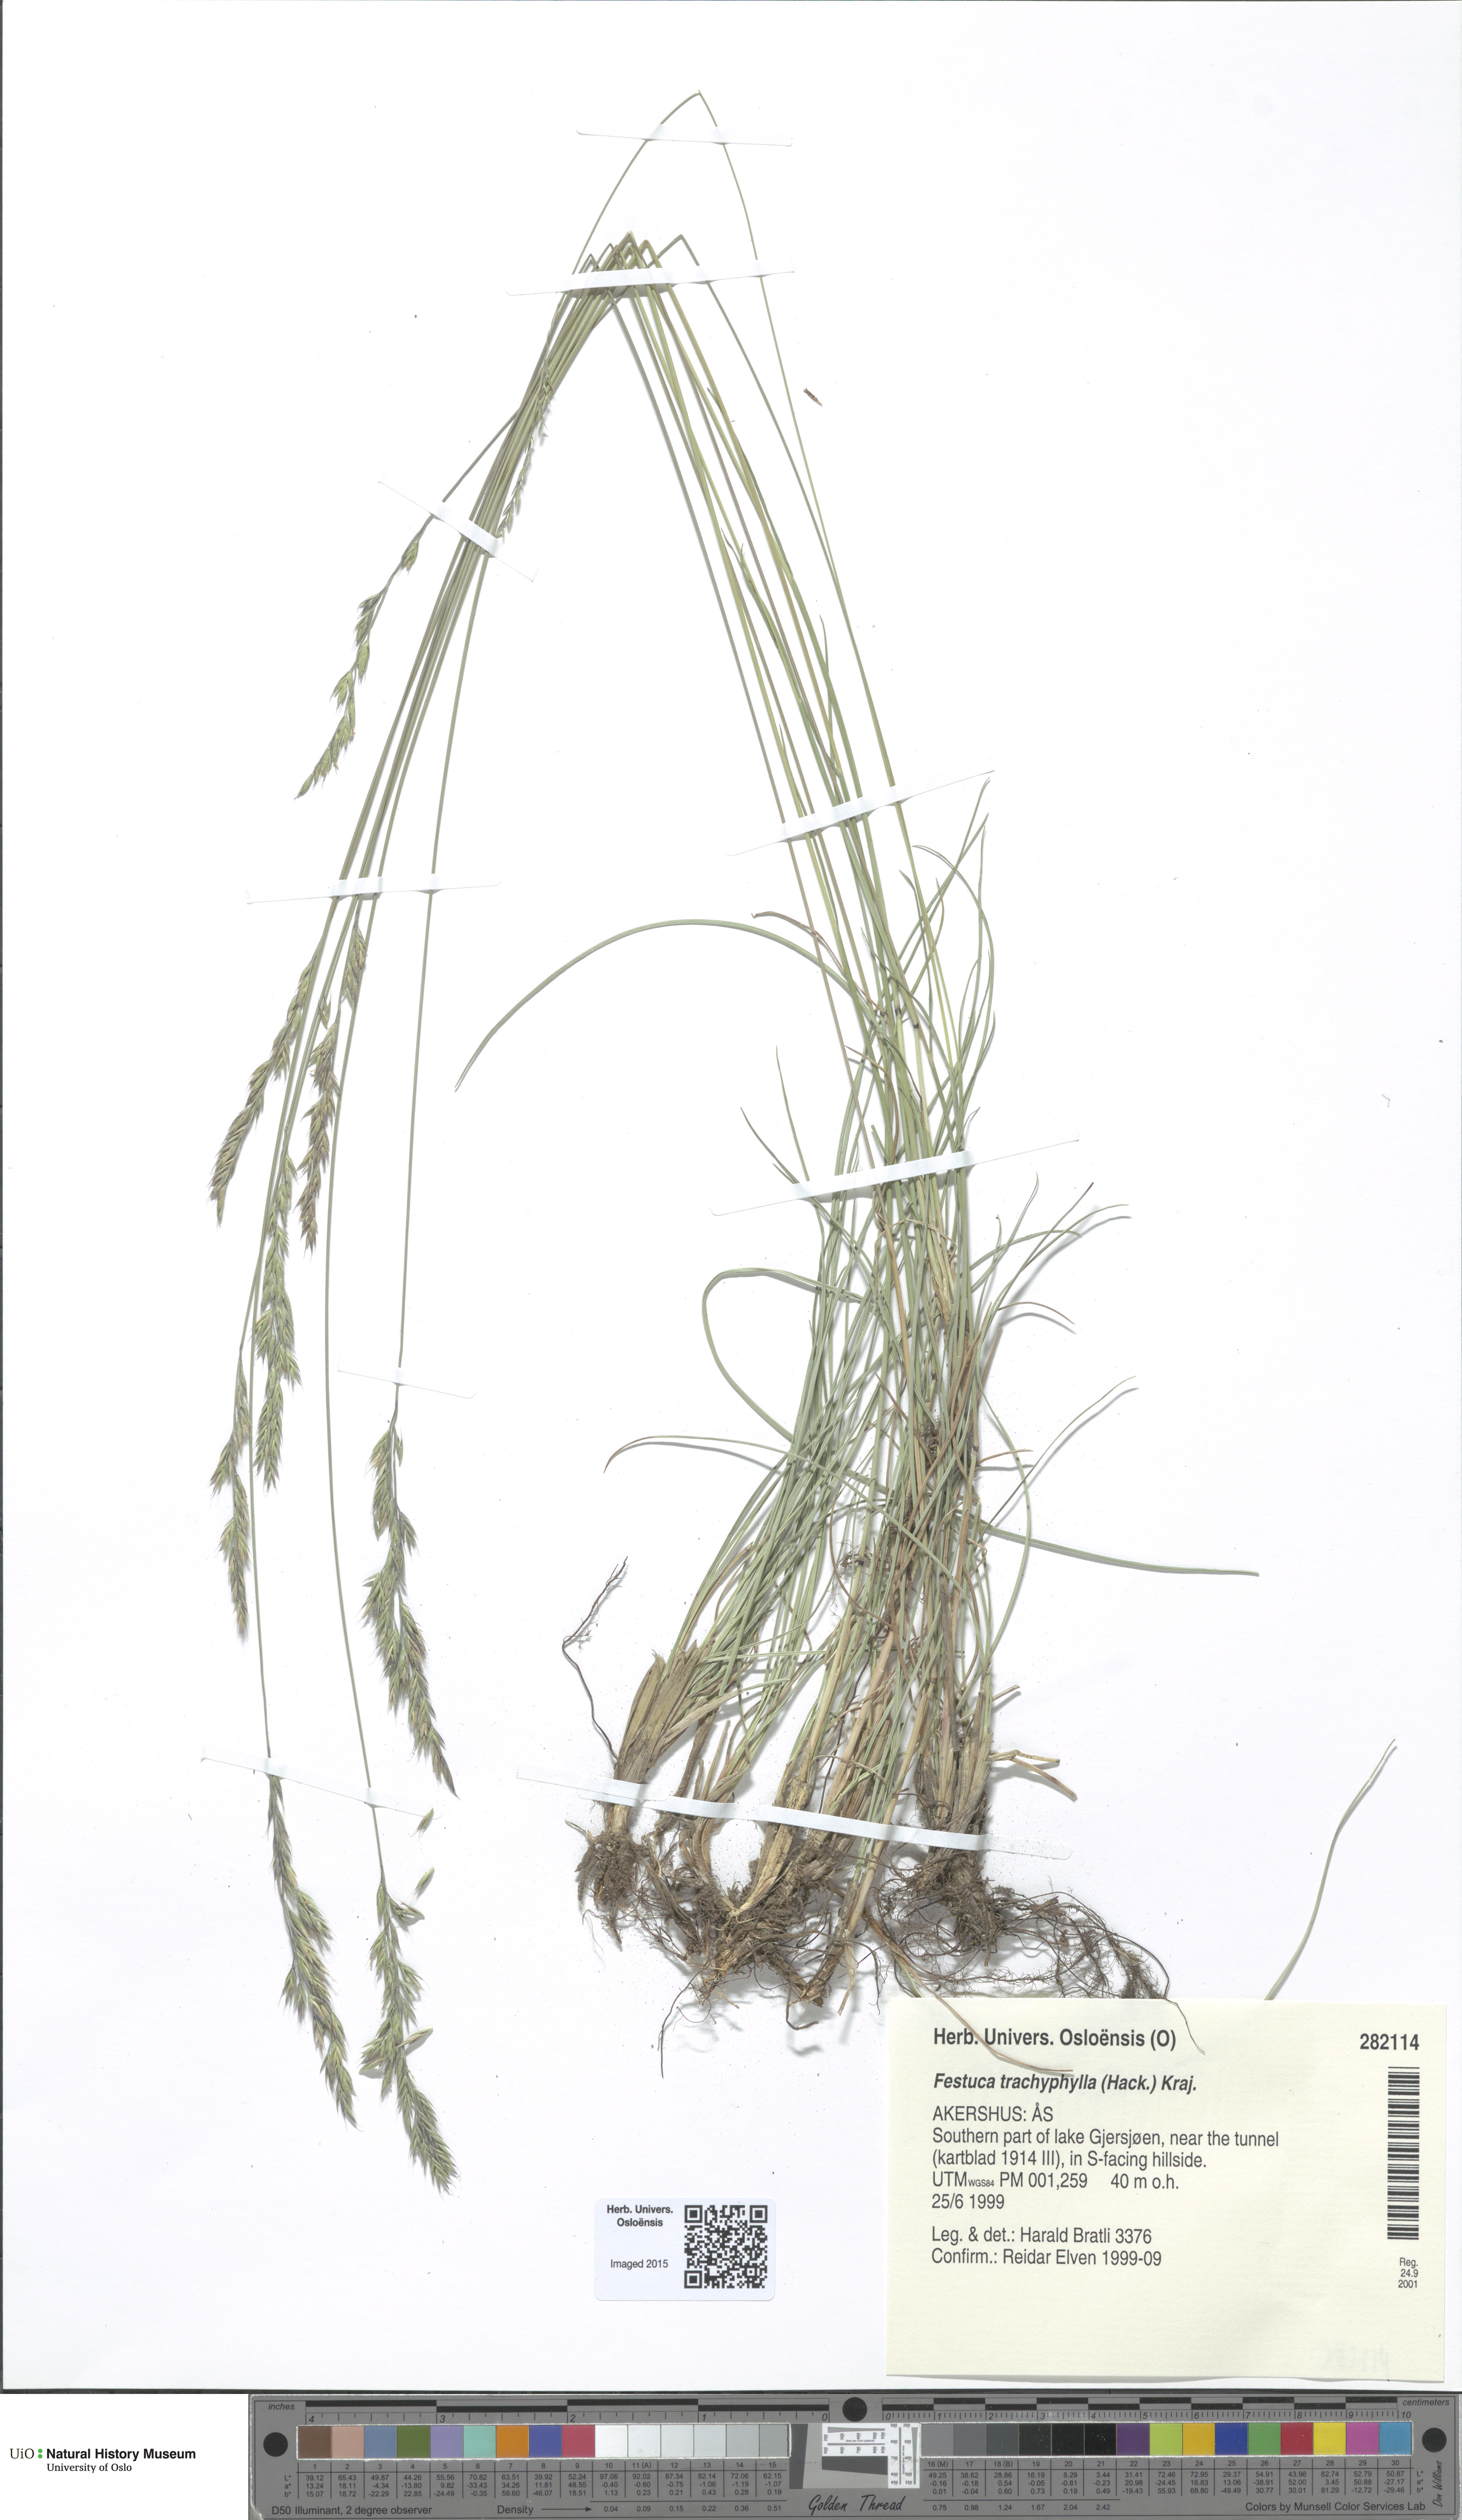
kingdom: Plantae
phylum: Tracheophyta
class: Liliopsida
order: Poales
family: Poaceae
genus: Festuca
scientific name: Festuca trachyphylla
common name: Hard fescue
